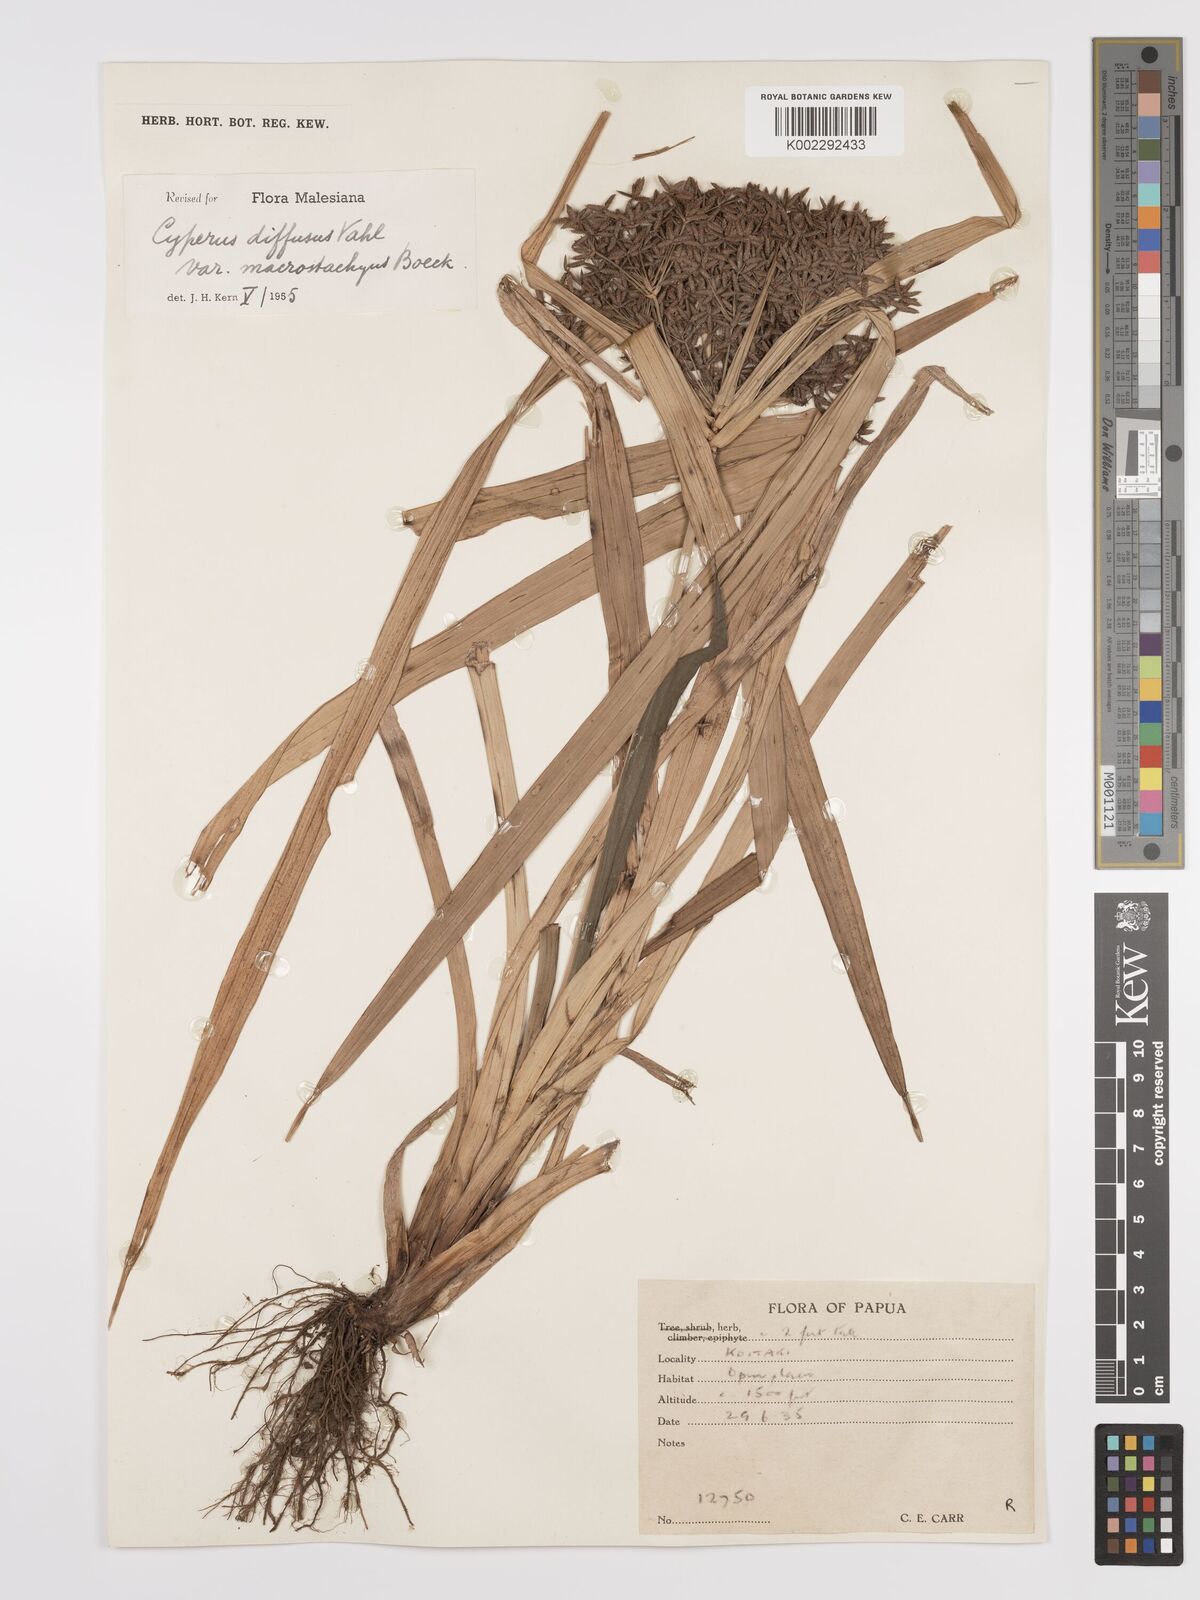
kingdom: Plantae
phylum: Tracheophyta
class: Liliopsida
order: Poales
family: Cyperaceae
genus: Cyperus
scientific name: Cyperus diffusus
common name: Dwarf umbrella grass
